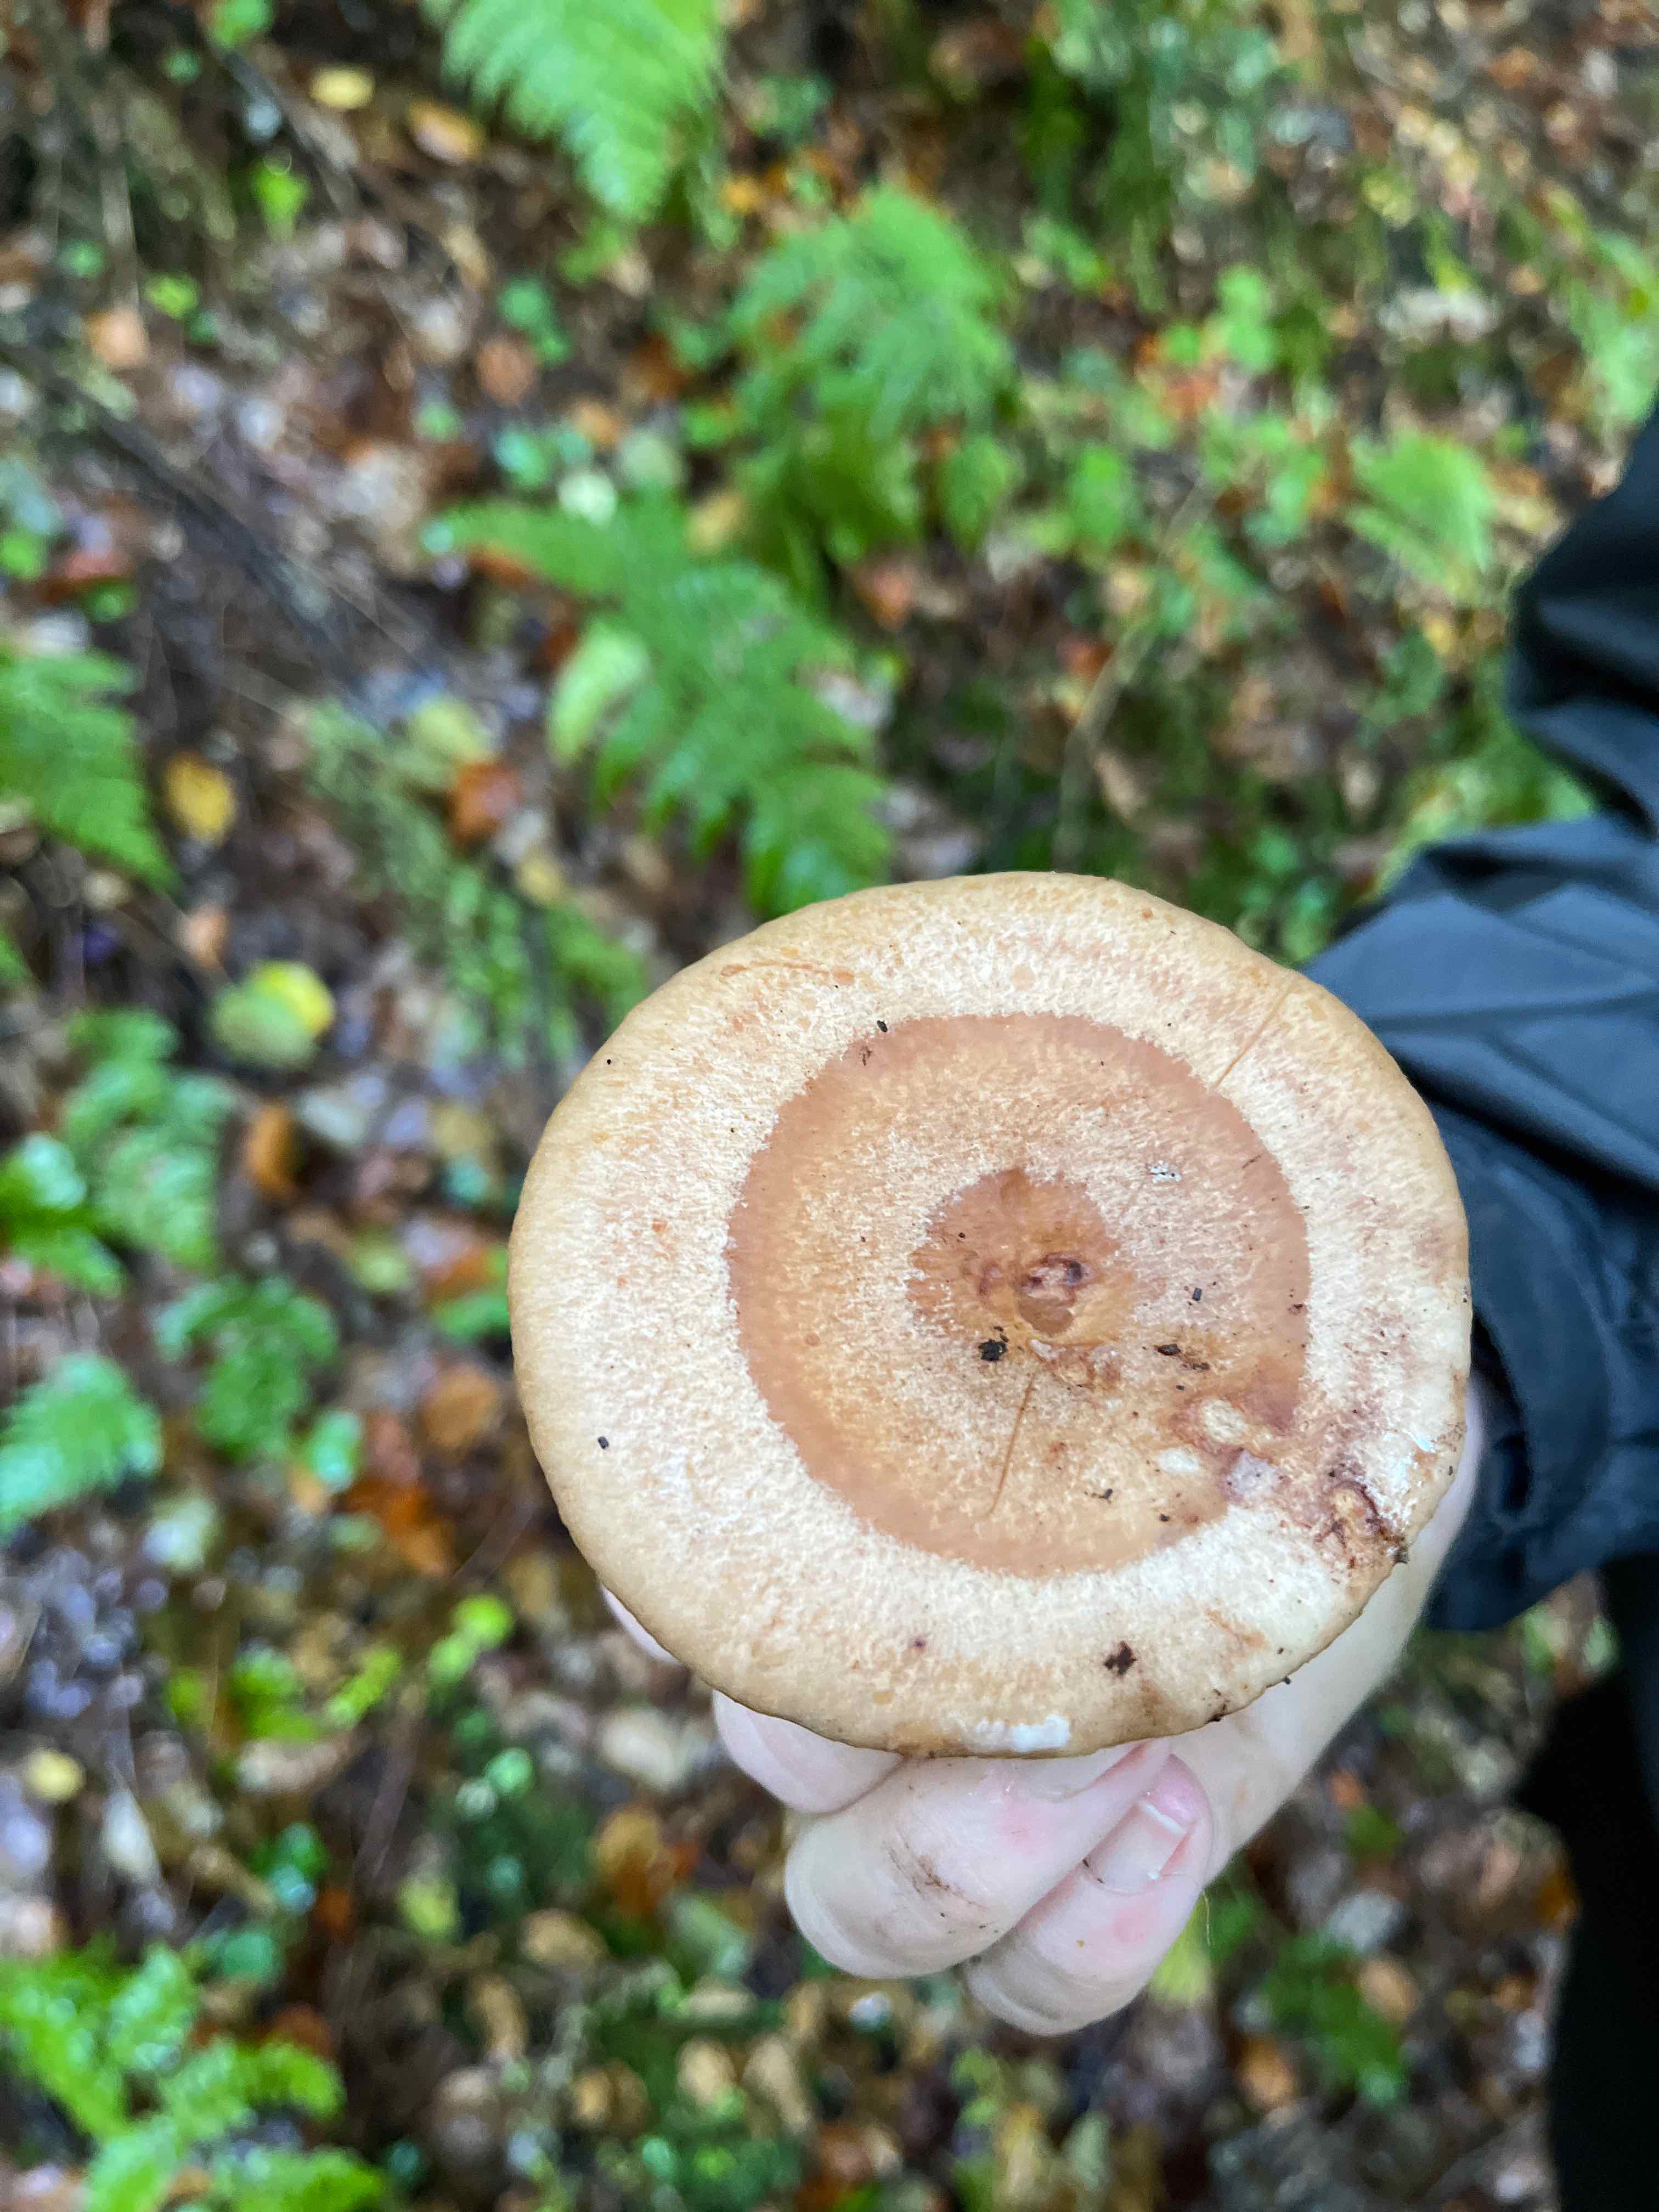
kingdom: Fungi
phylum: Basidiomycota
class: Agaricomycetes
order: Russulales
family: Russulaceae
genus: Lactarius
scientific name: Lactarius quietus
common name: ege-mælkehat
